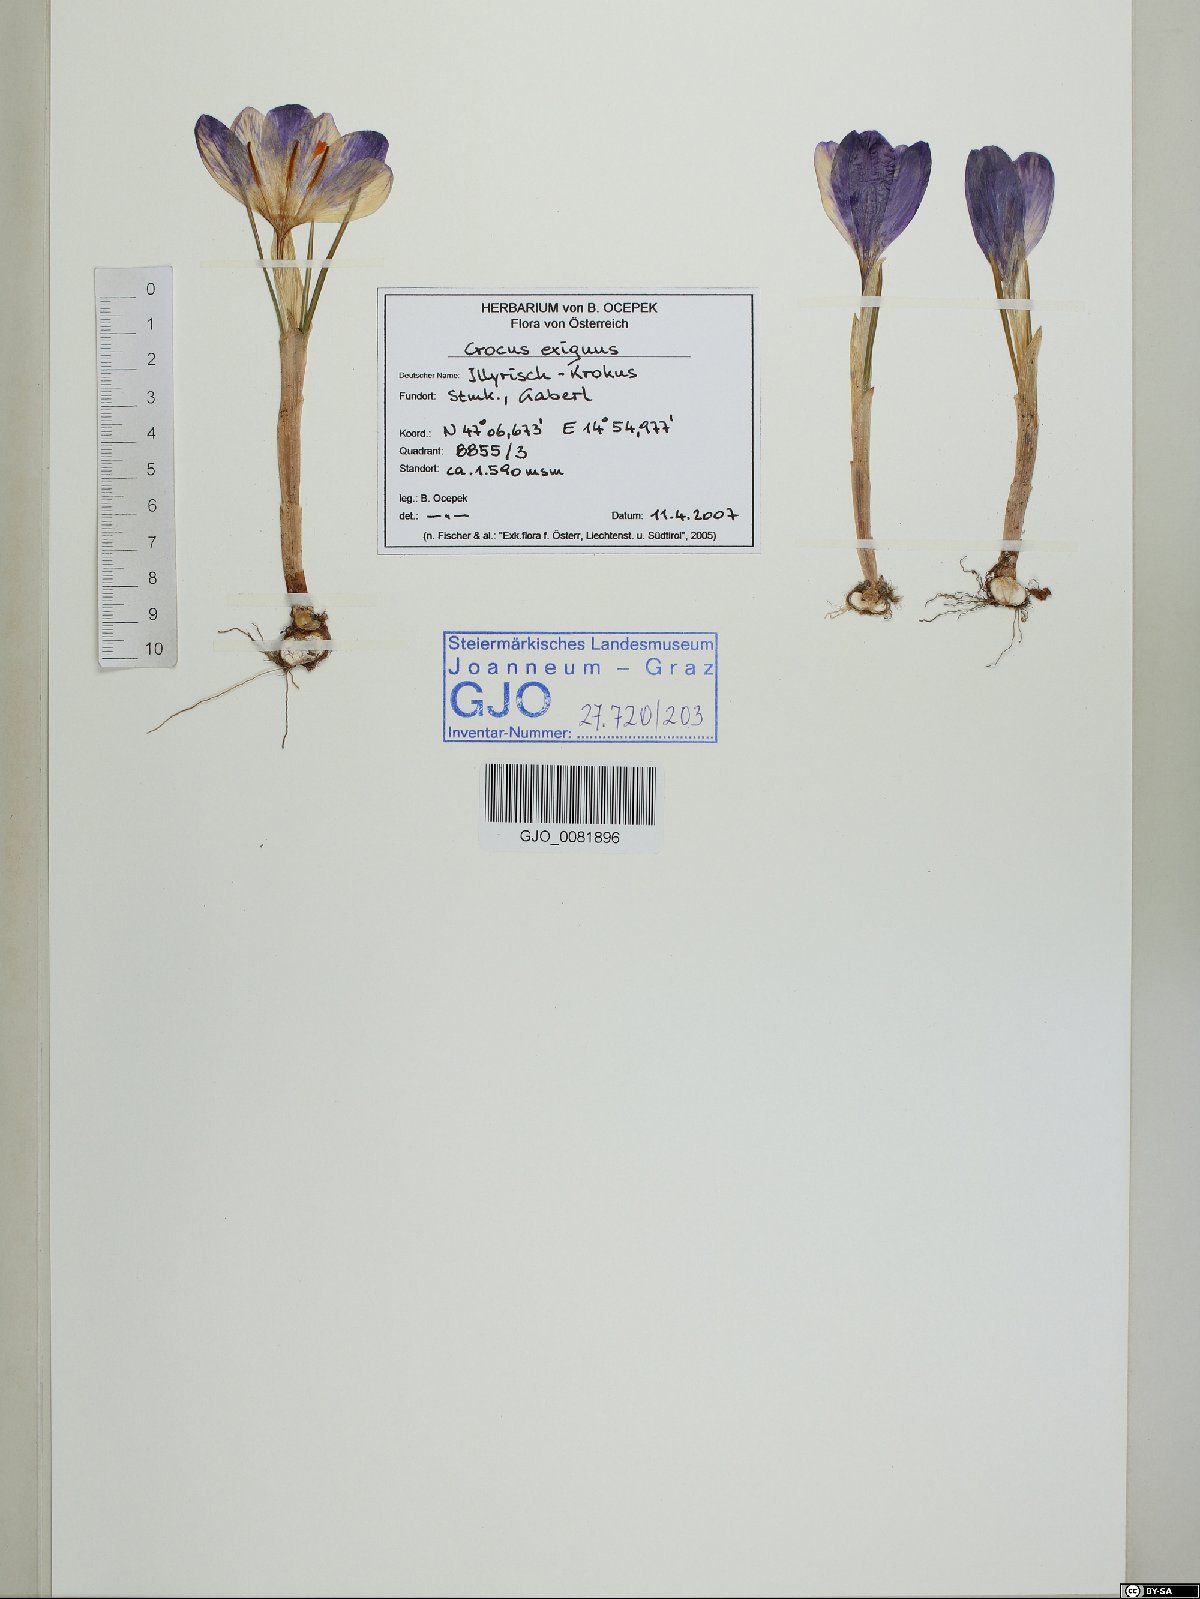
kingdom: Plantae
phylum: Tracheophyta
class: Liliopsida
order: Asparagales
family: Iridaceae
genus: Crocus
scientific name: Crocus heuffelianus
